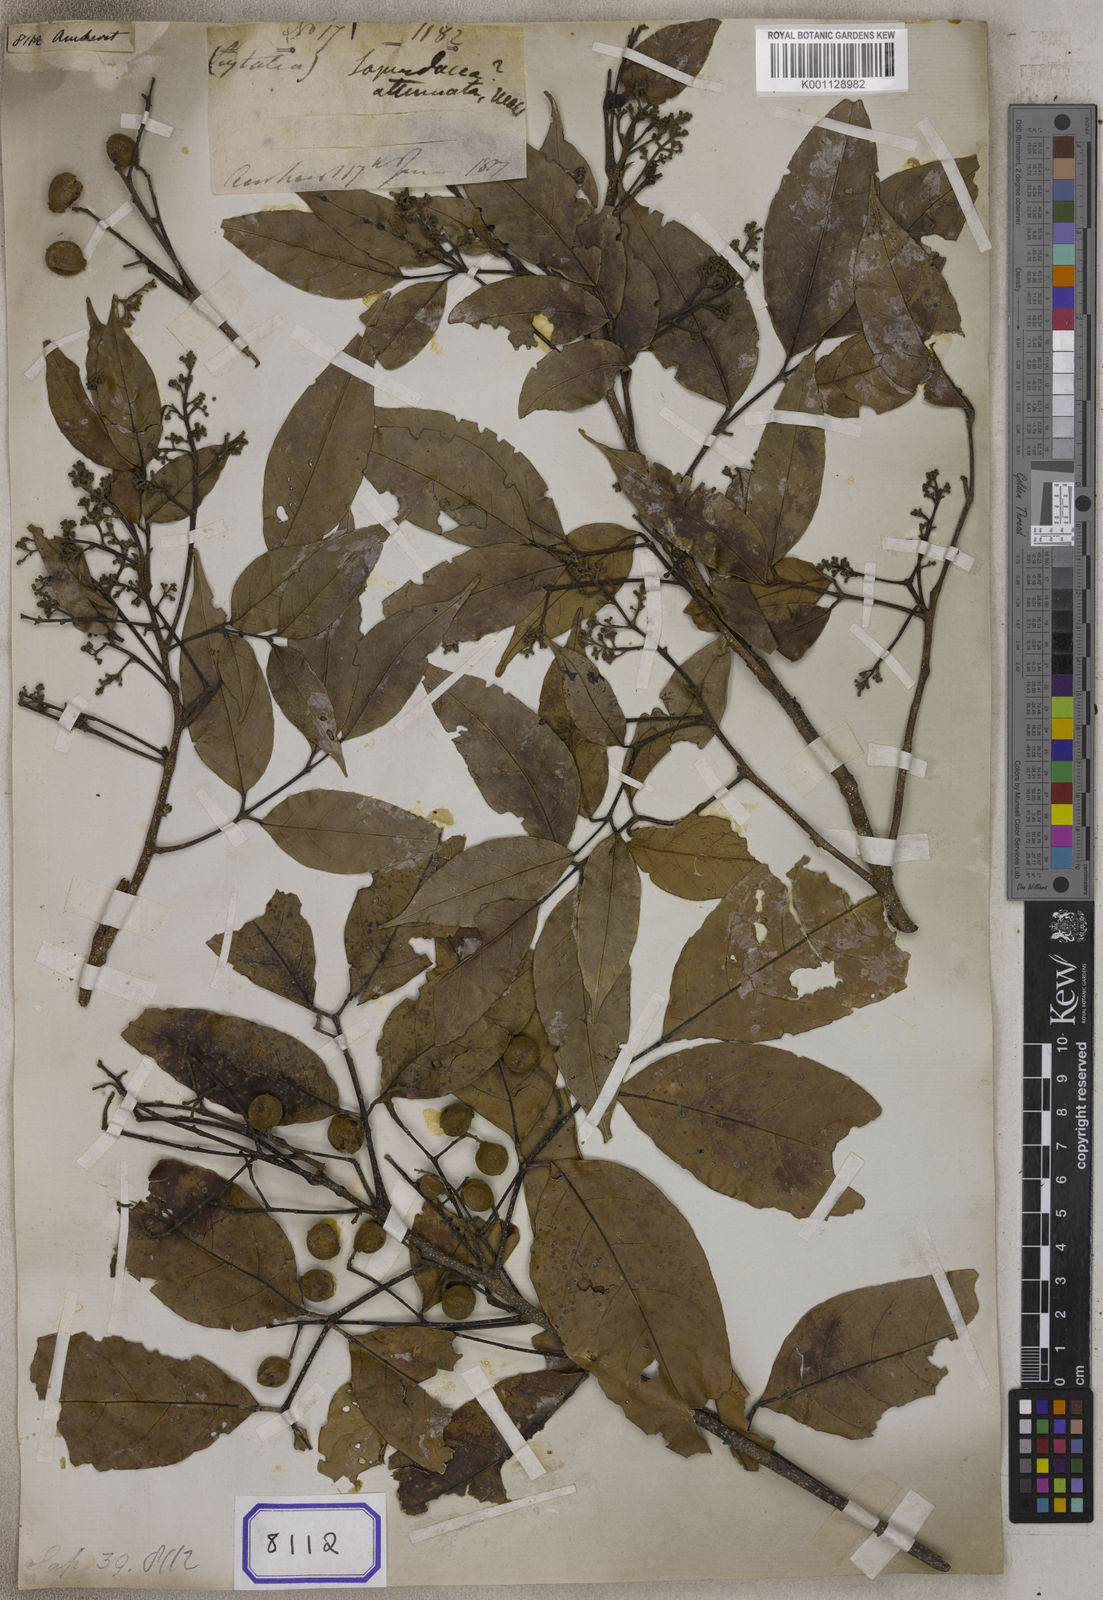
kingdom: Plantae
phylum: Tracheophyta
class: Magnoliopsida
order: Sapindales
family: Sapindaceae
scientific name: Sapindaceae
